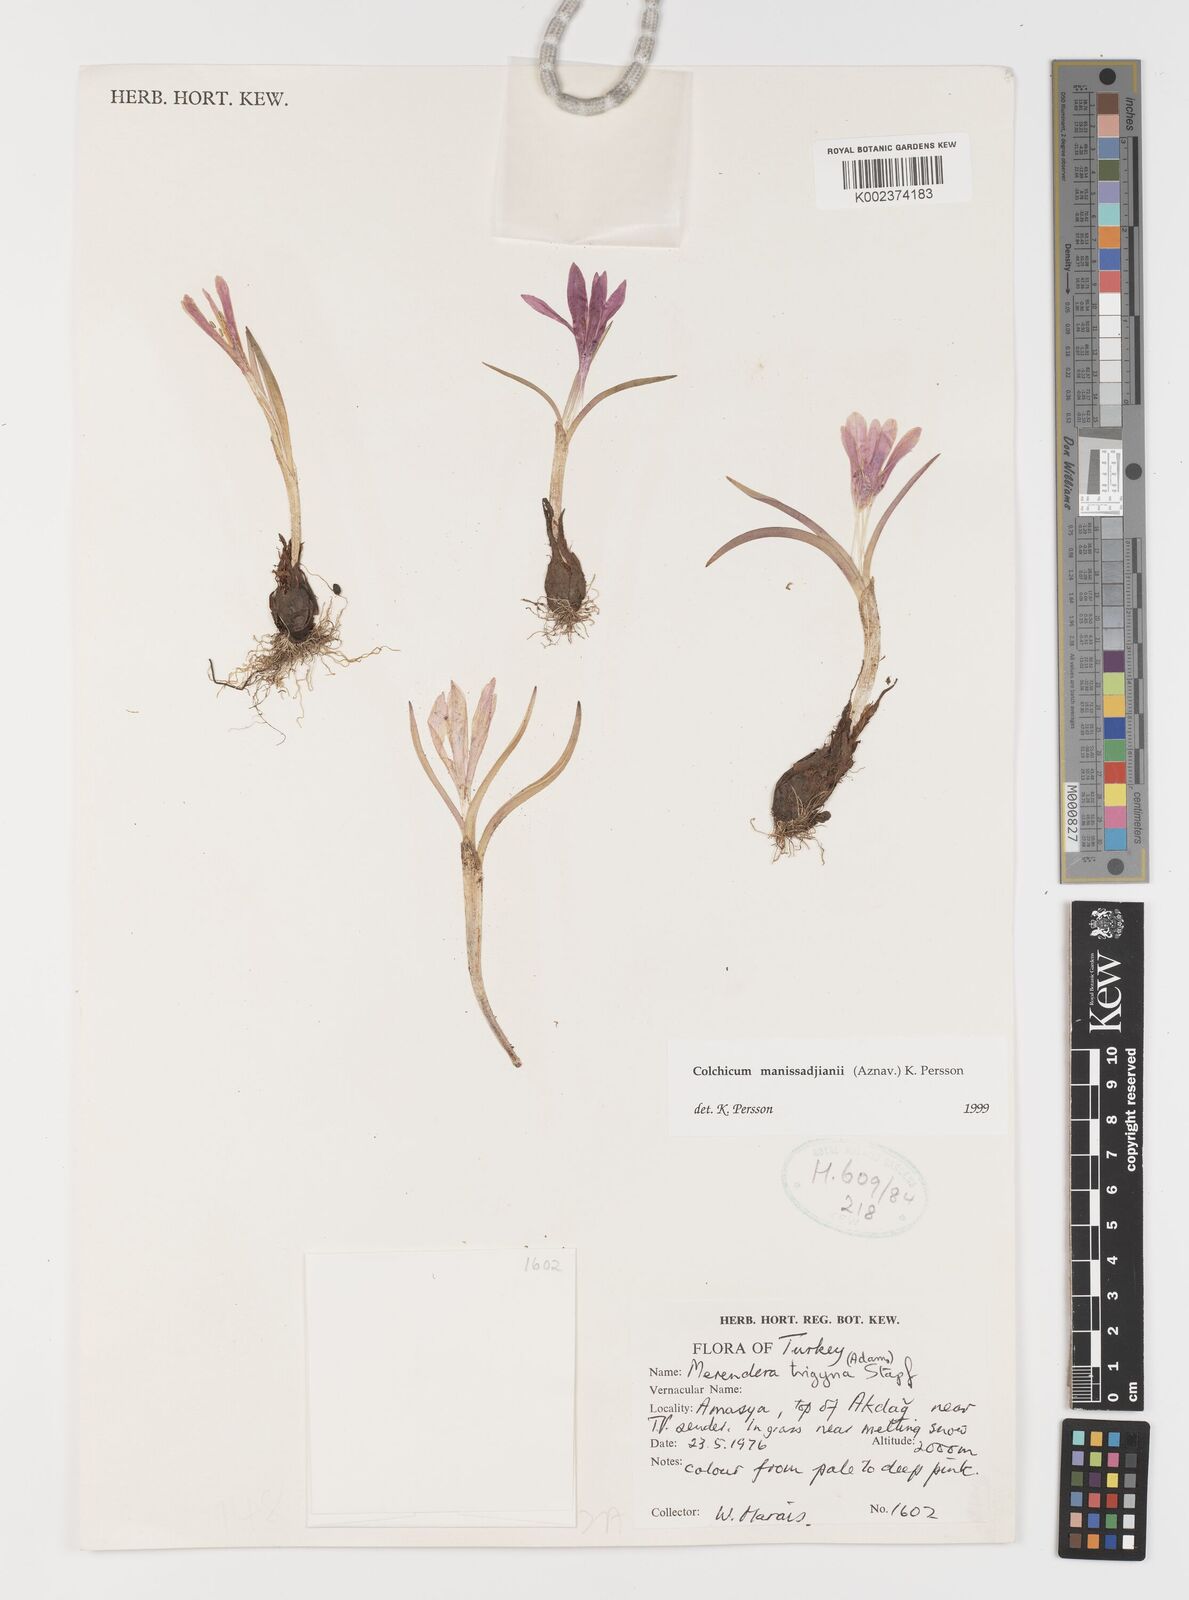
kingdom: Plantae
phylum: Tracheophyta
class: Liliopsida
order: Liliales
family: Colchicaceae
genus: Colchicum
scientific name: Colchicum manissadjianii
